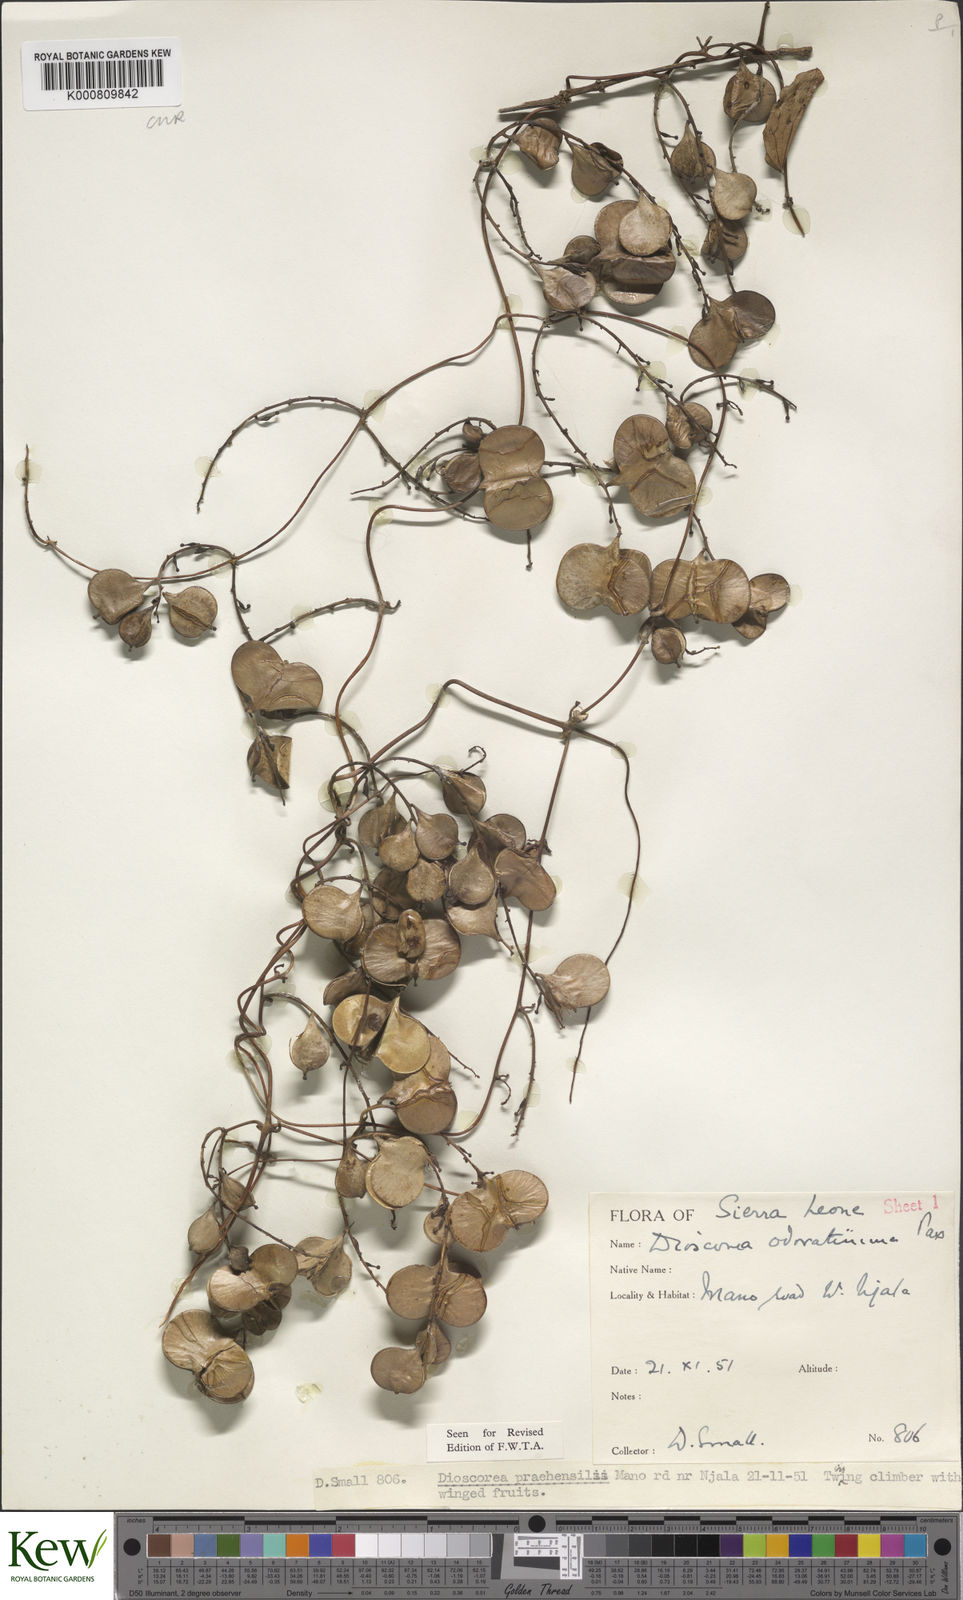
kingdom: Plantae
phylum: Tracheophyta
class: Liliopsida
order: Dioscoreales
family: Dioscoreaceae
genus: Dioscorea
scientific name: Dioscorea praehensilis
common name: Bush yam
